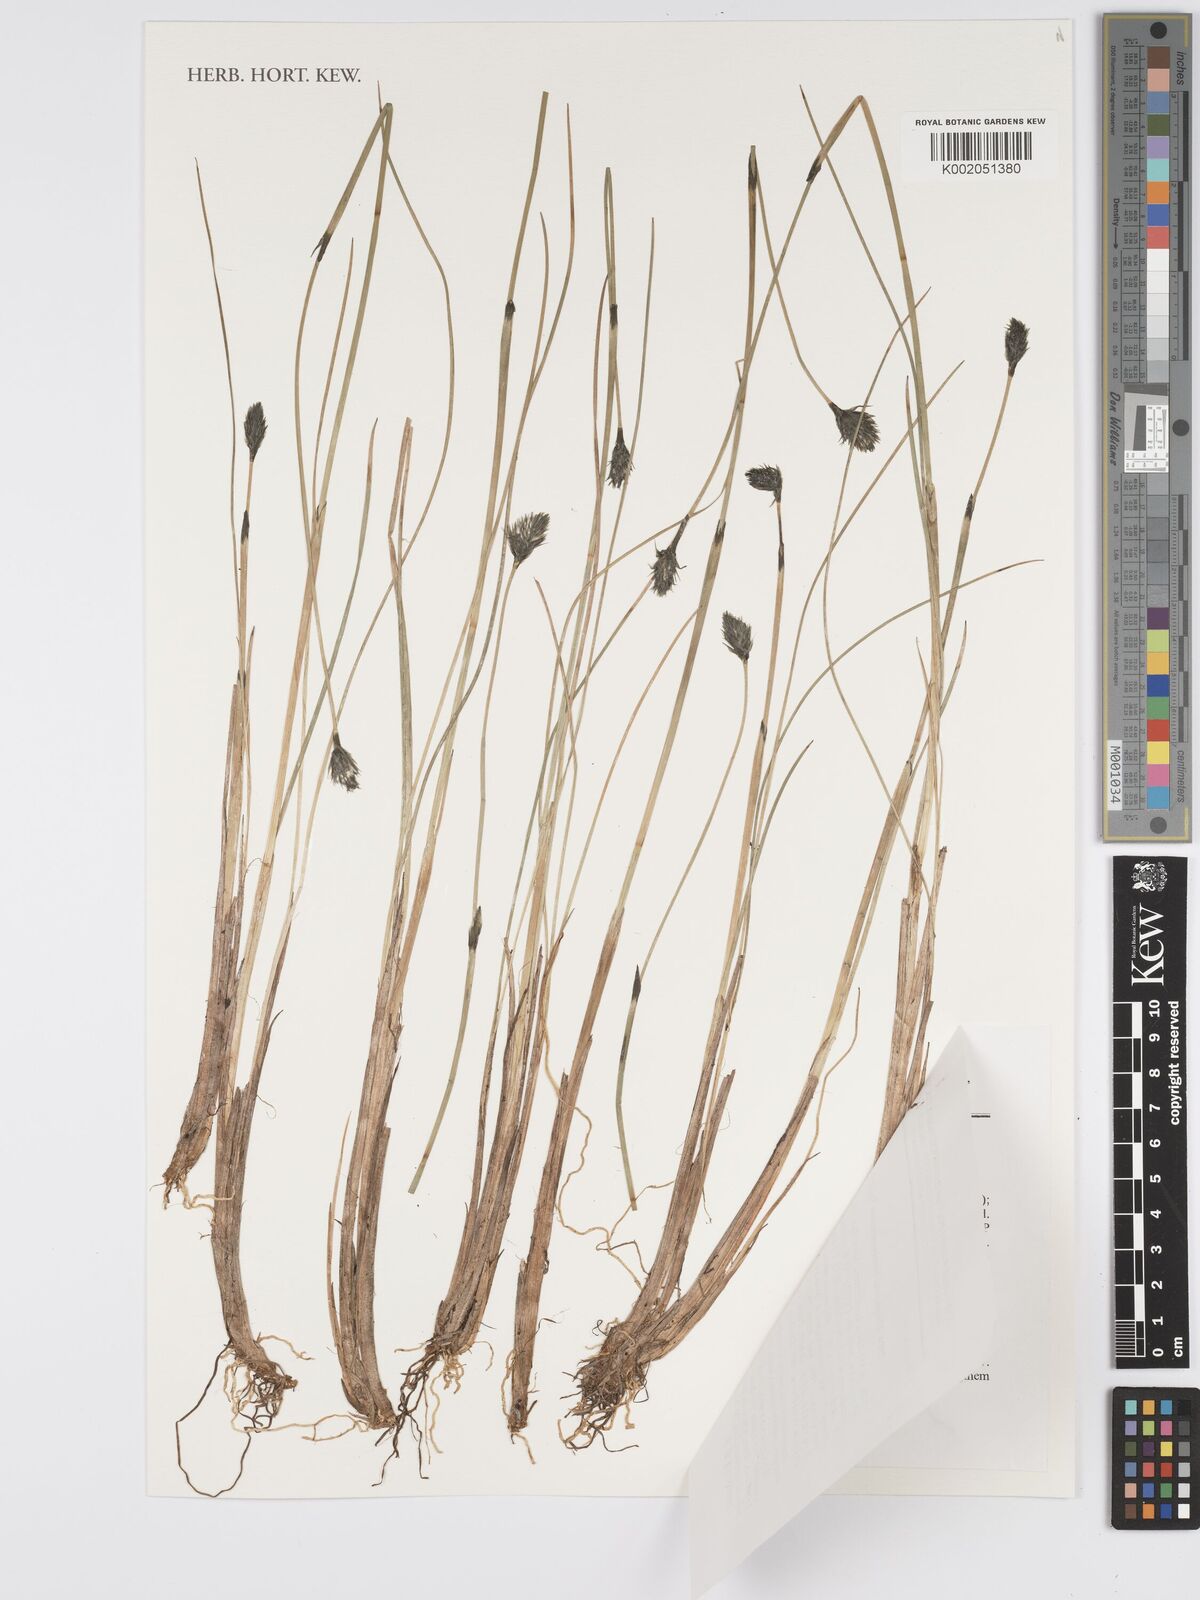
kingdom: Plantae
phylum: Tracheophyta
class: Liliopsida
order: Poales
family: Cyperaceae
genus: Eriophorum
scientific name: Eriophorum brachyantherum
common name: Closed-sheathed cottongrass
